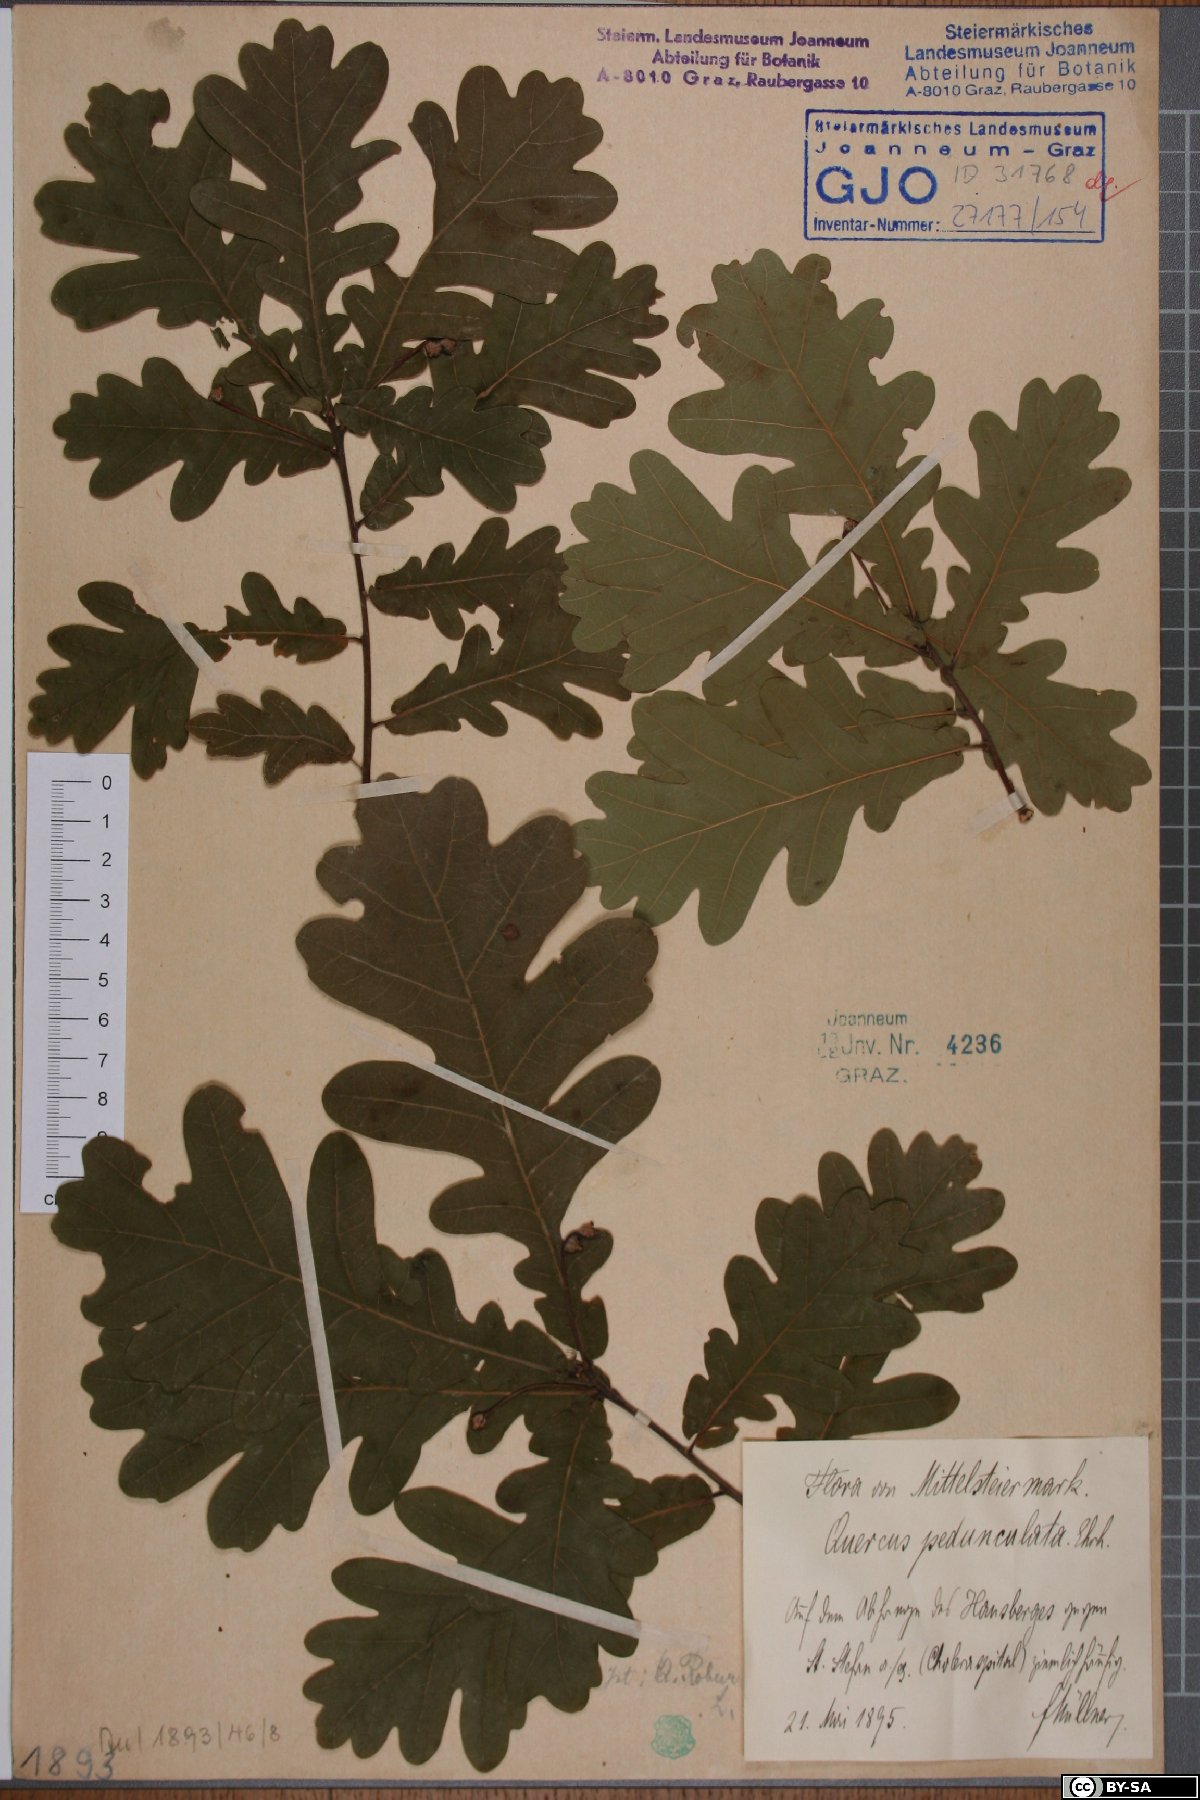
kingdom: Plantae
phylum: Tracheophyta
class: Magnoliopsida
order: Fagales
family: Fagaceae
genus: Quercus
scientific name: Quercus robur
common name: Pedunculate oak
